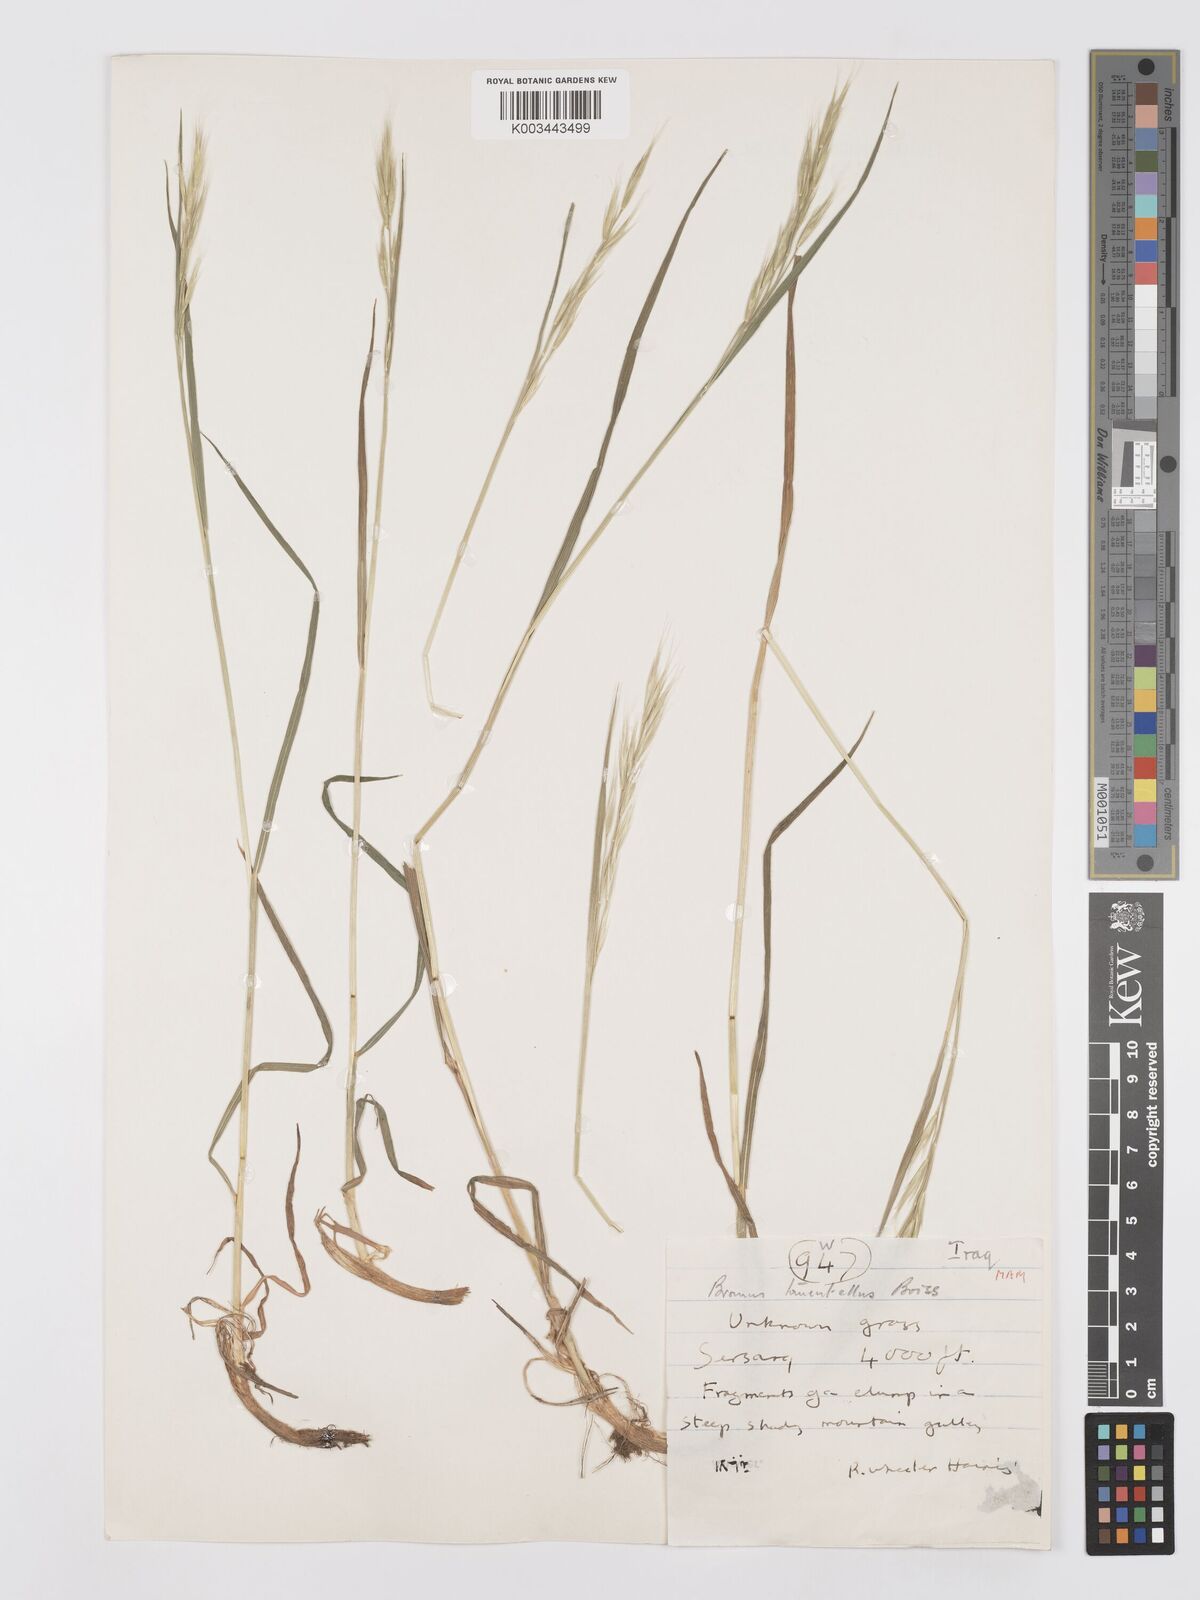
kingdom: Plantae
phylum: Tracheophyta
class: Liliopsida
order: Poales
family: Poaceae
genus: Bromus
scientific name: Bromus tomentellus
